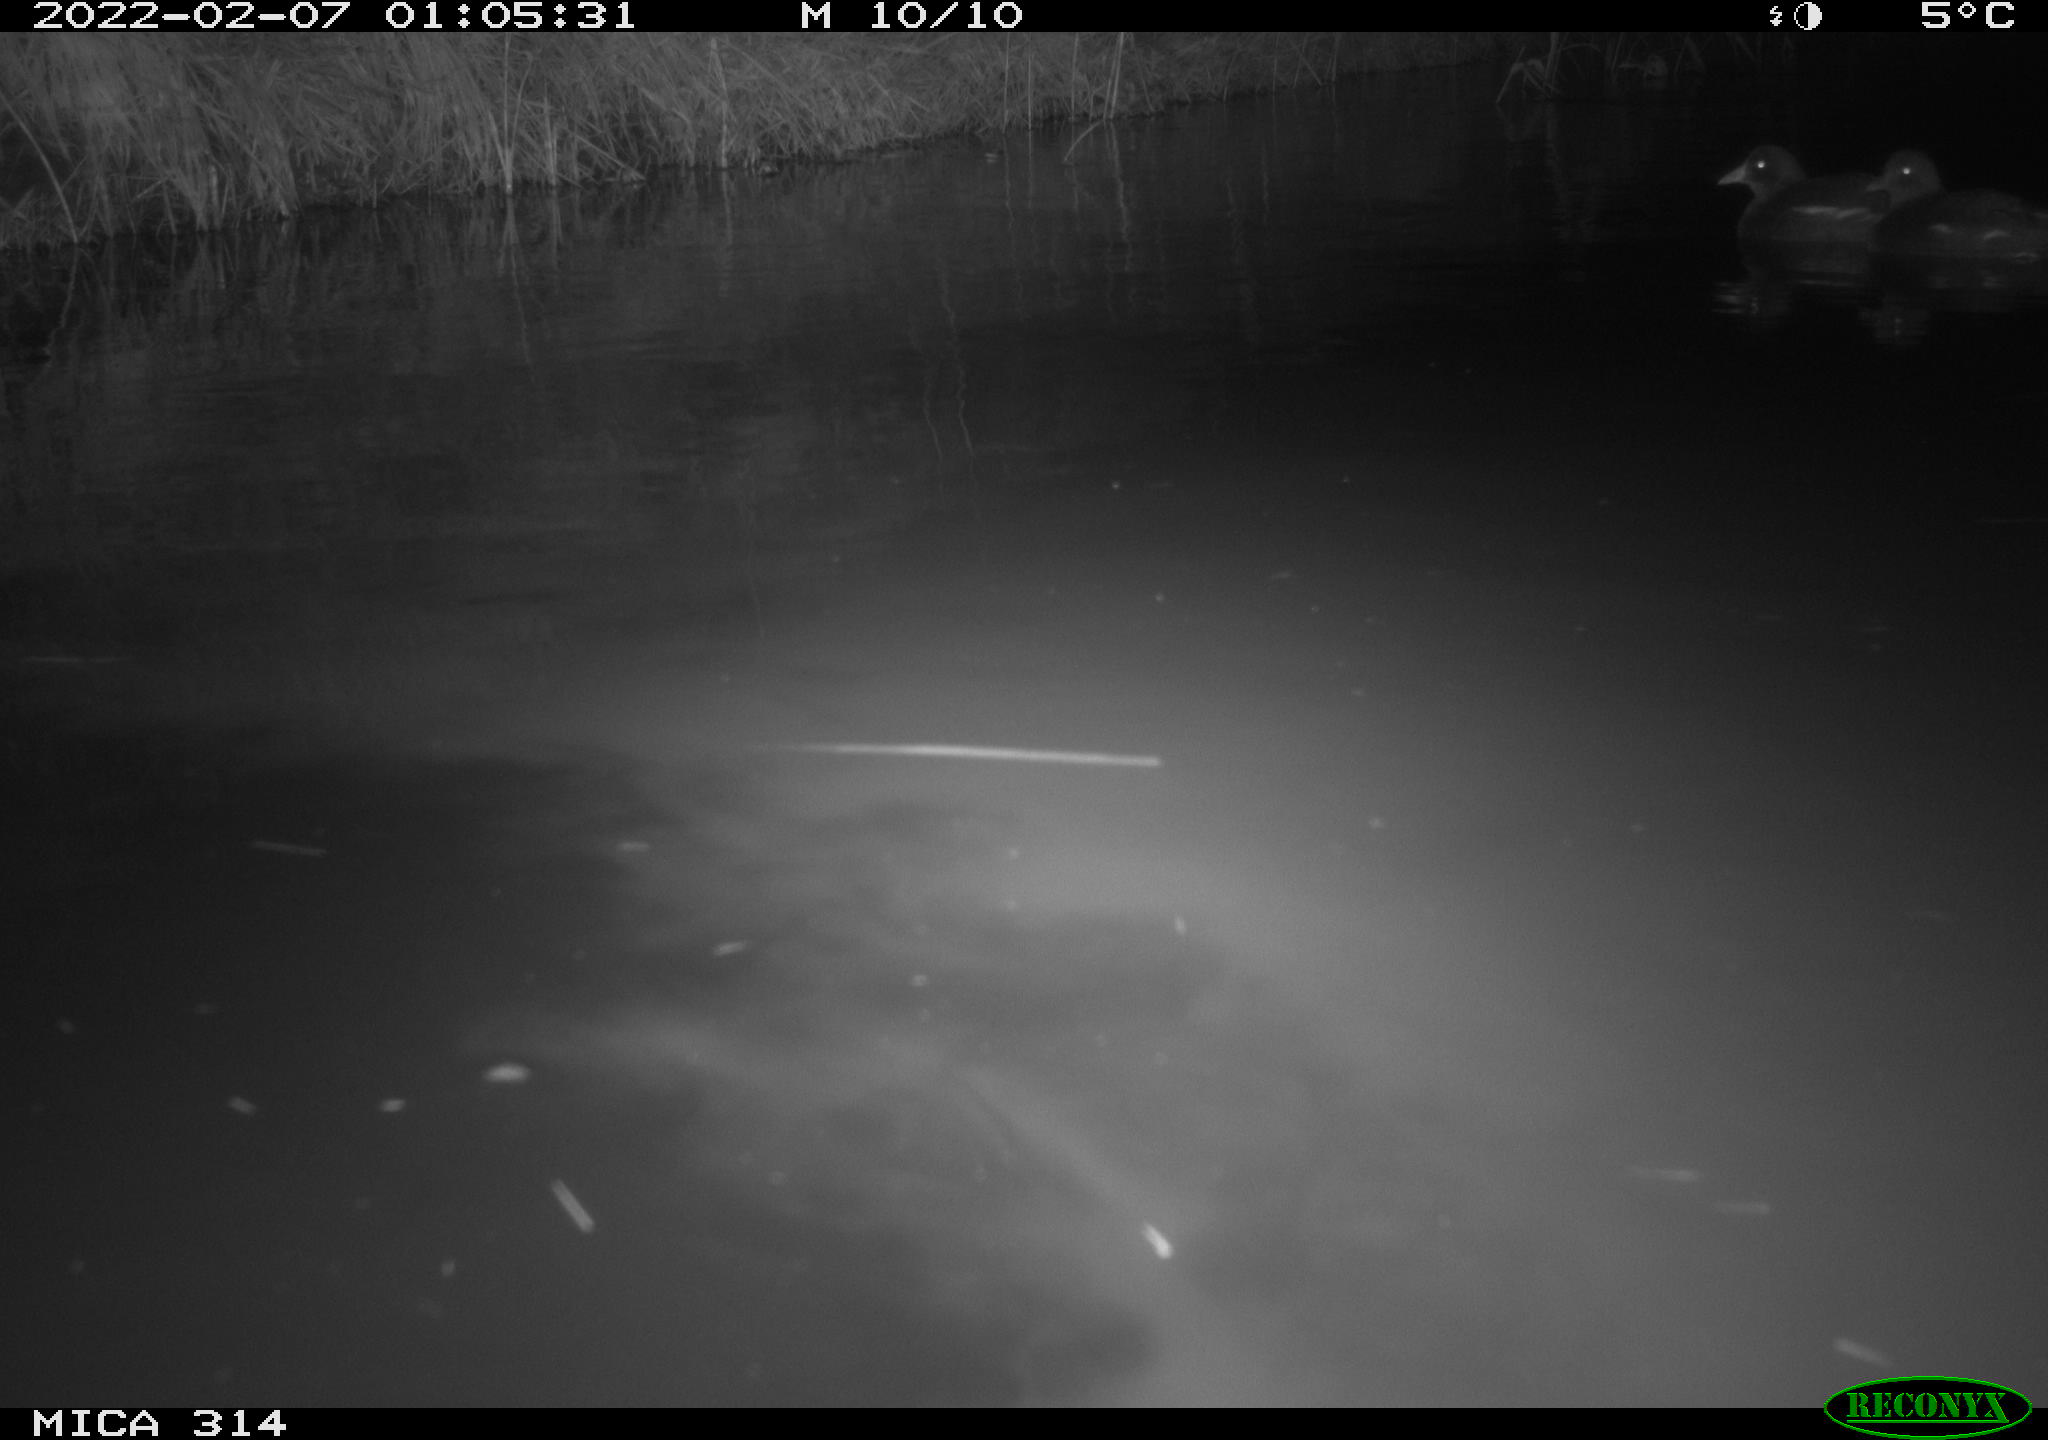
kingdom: Animalia
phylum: Chordata
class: Aves
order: Gruiformes
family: Rallidae
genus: Gallinula
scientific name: Gallinula chloropus
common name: Common moorhen
